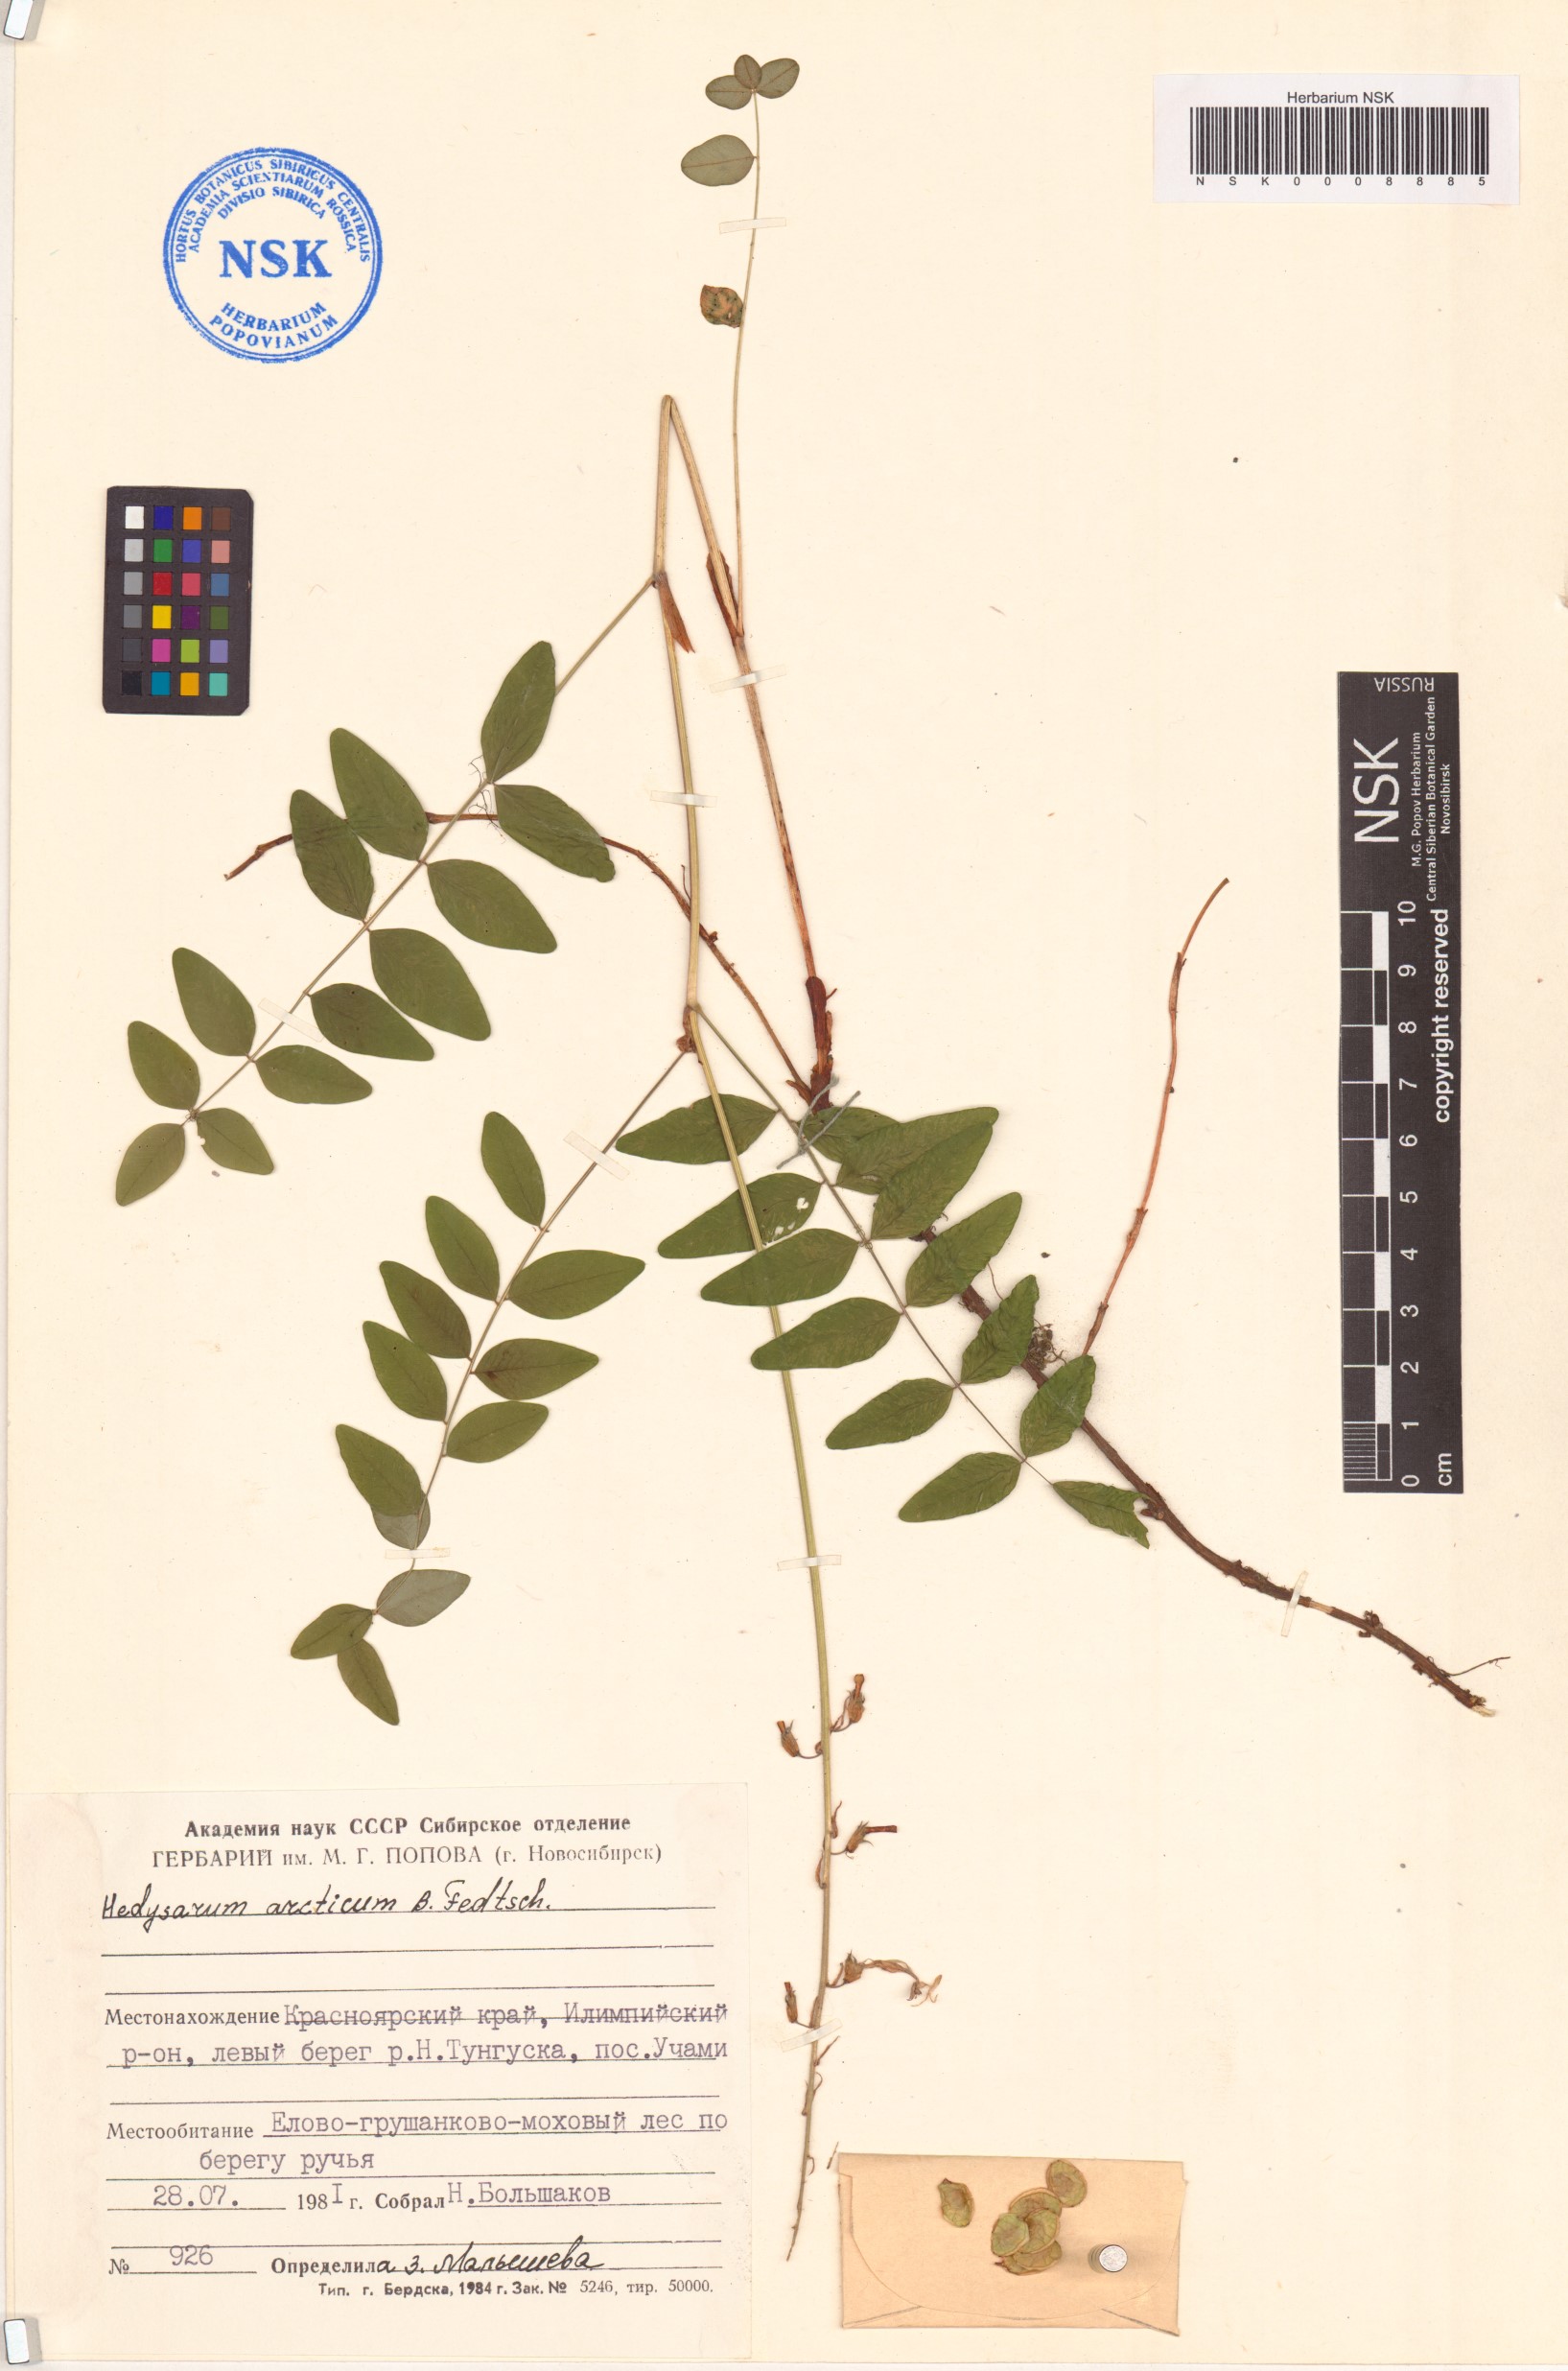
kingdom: Plantae
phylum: Tracheophyta
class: Magnoliopsida
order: Fabales
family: Fabaceae
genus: Hedysarum
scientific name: Hedysarum hedysaroides
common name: Alpine french-honeysuckle
